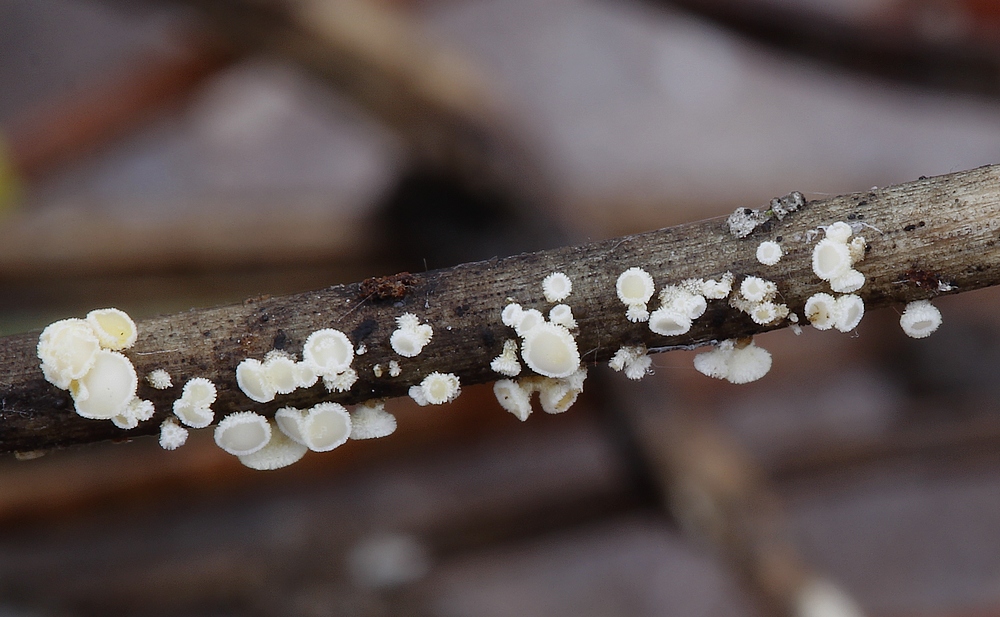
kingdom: Fungi
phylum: Ascomycota
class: Leotiomycetes
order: Helotiales
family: Lachnaceae
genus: Lachnellula
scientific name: Lachnellula pulverulenta
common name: fyrrenåls-frynseskive
